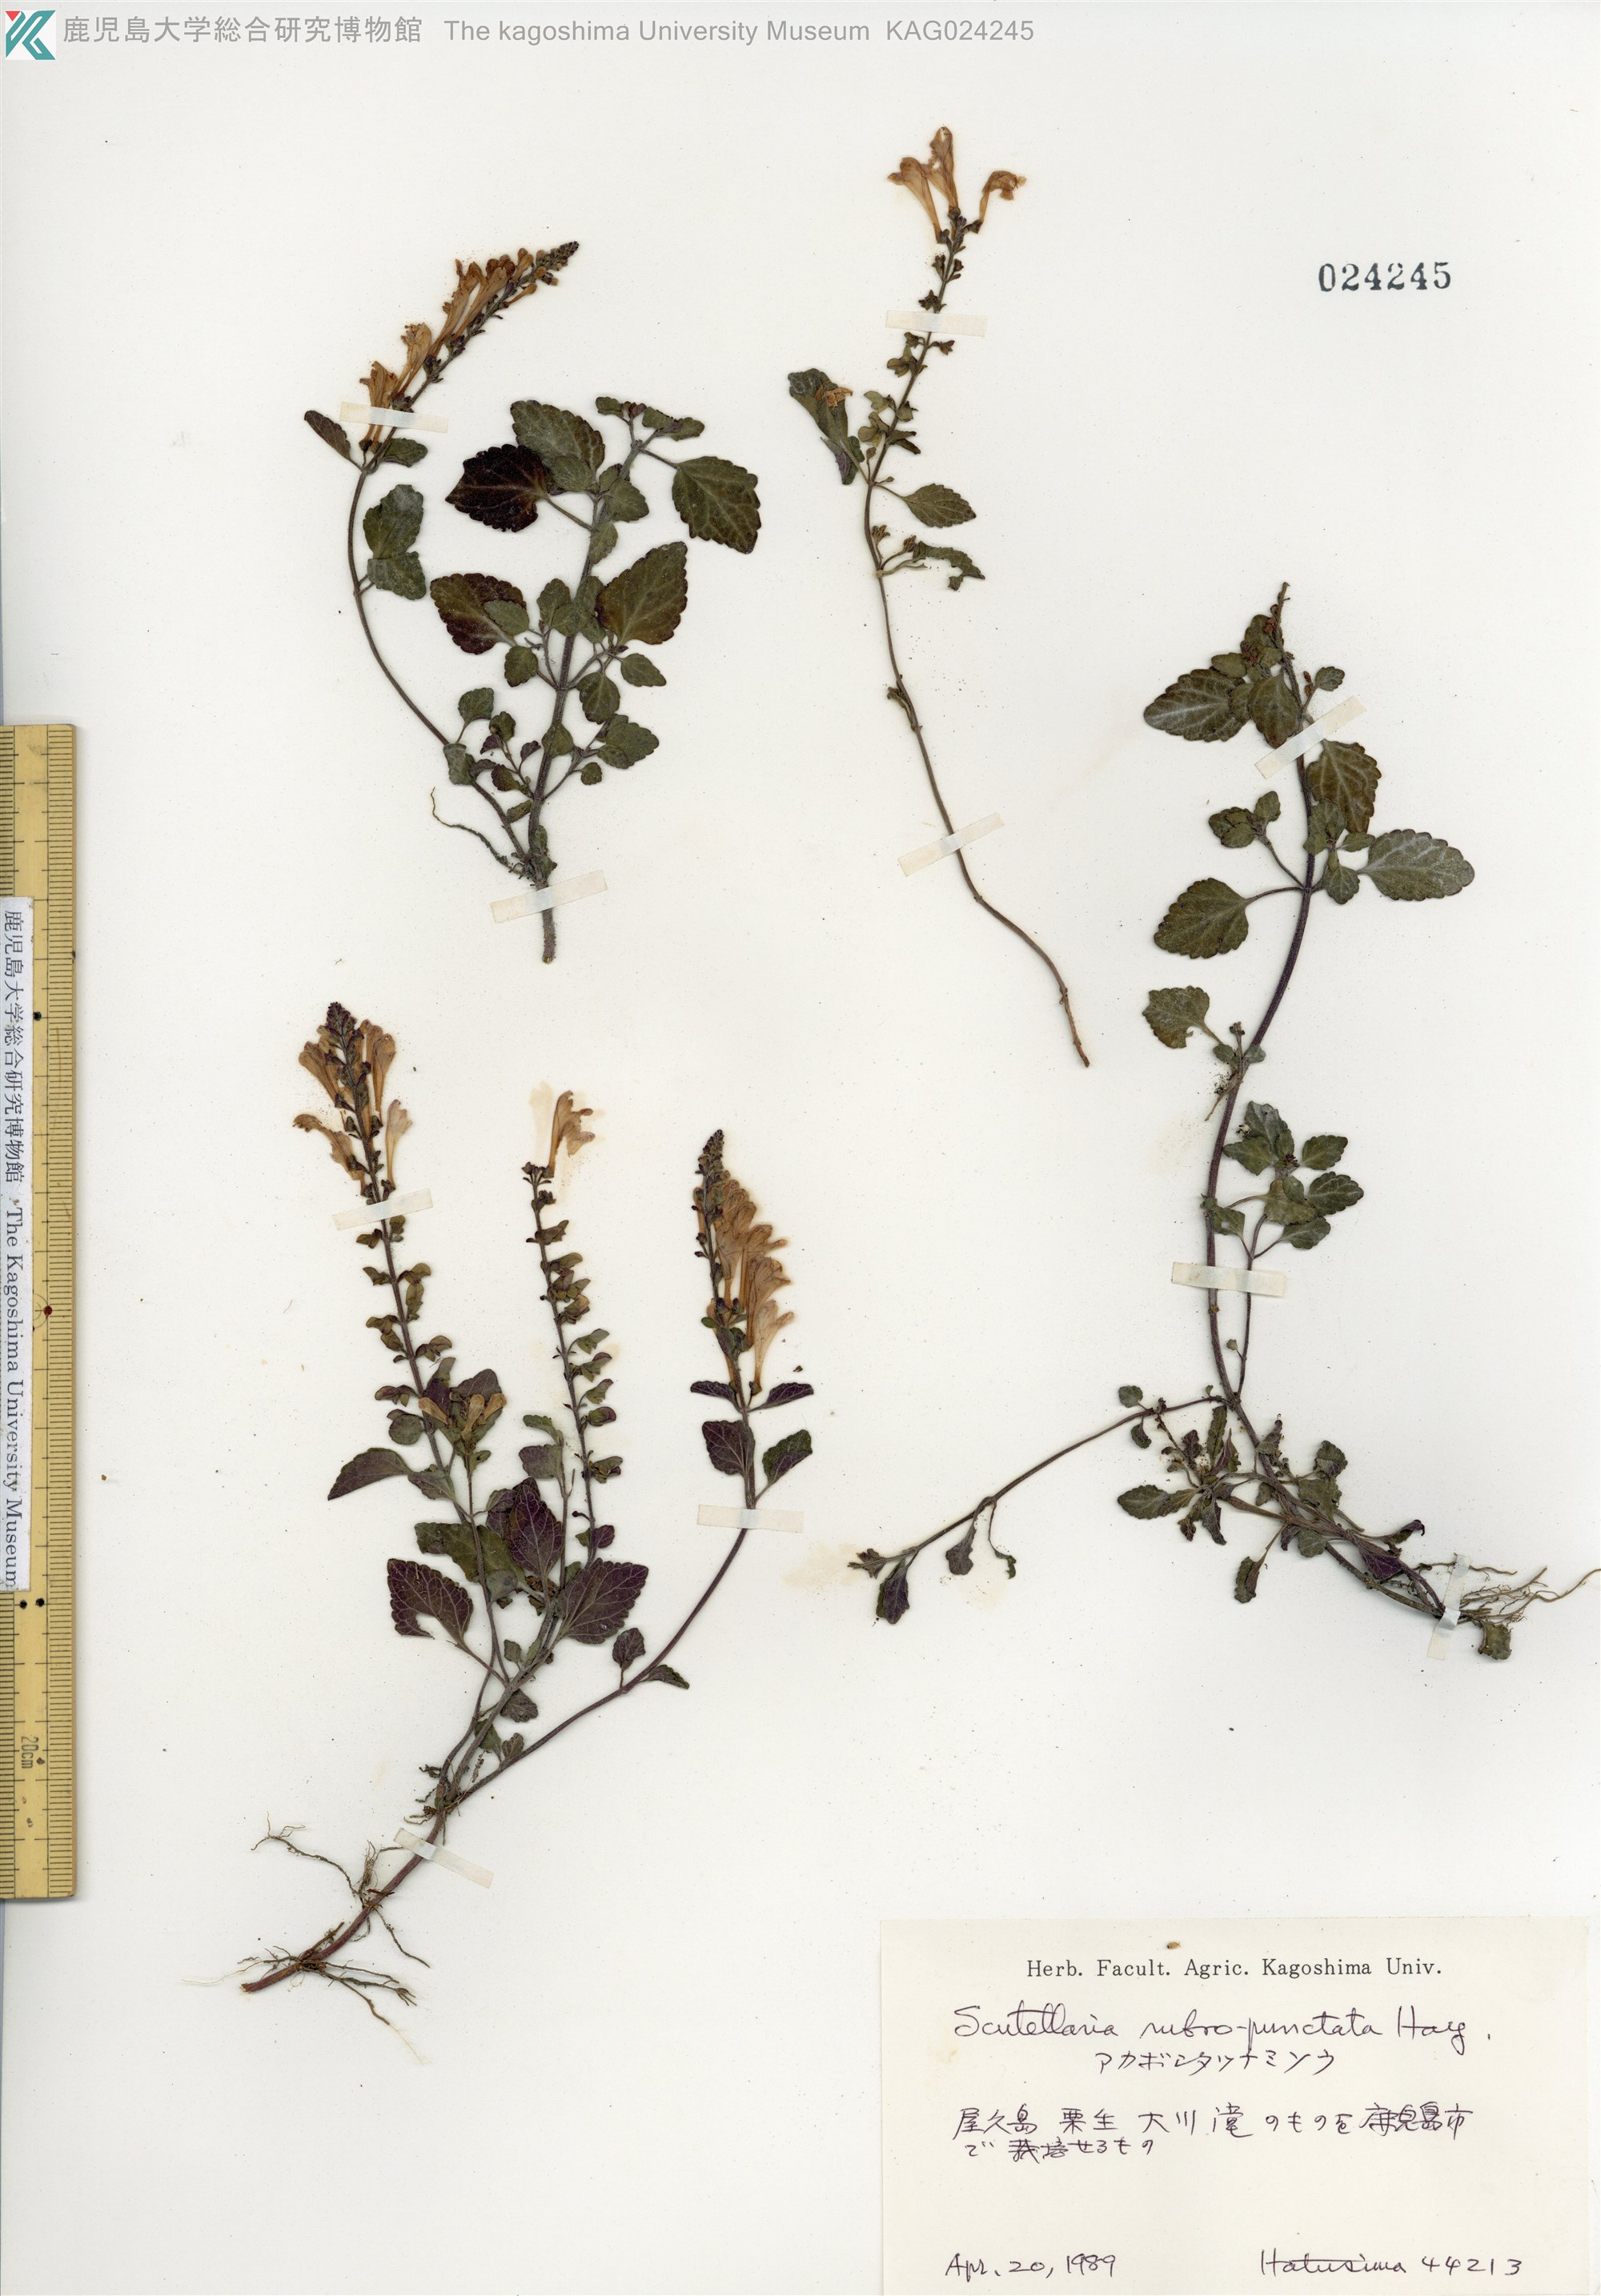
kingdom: Plantae
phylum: Tracheophyta
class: Magnoliopsida
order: Lamiales
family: Lamiaceae
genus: Scutellaria
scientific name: Scutellaria rubropunctata
